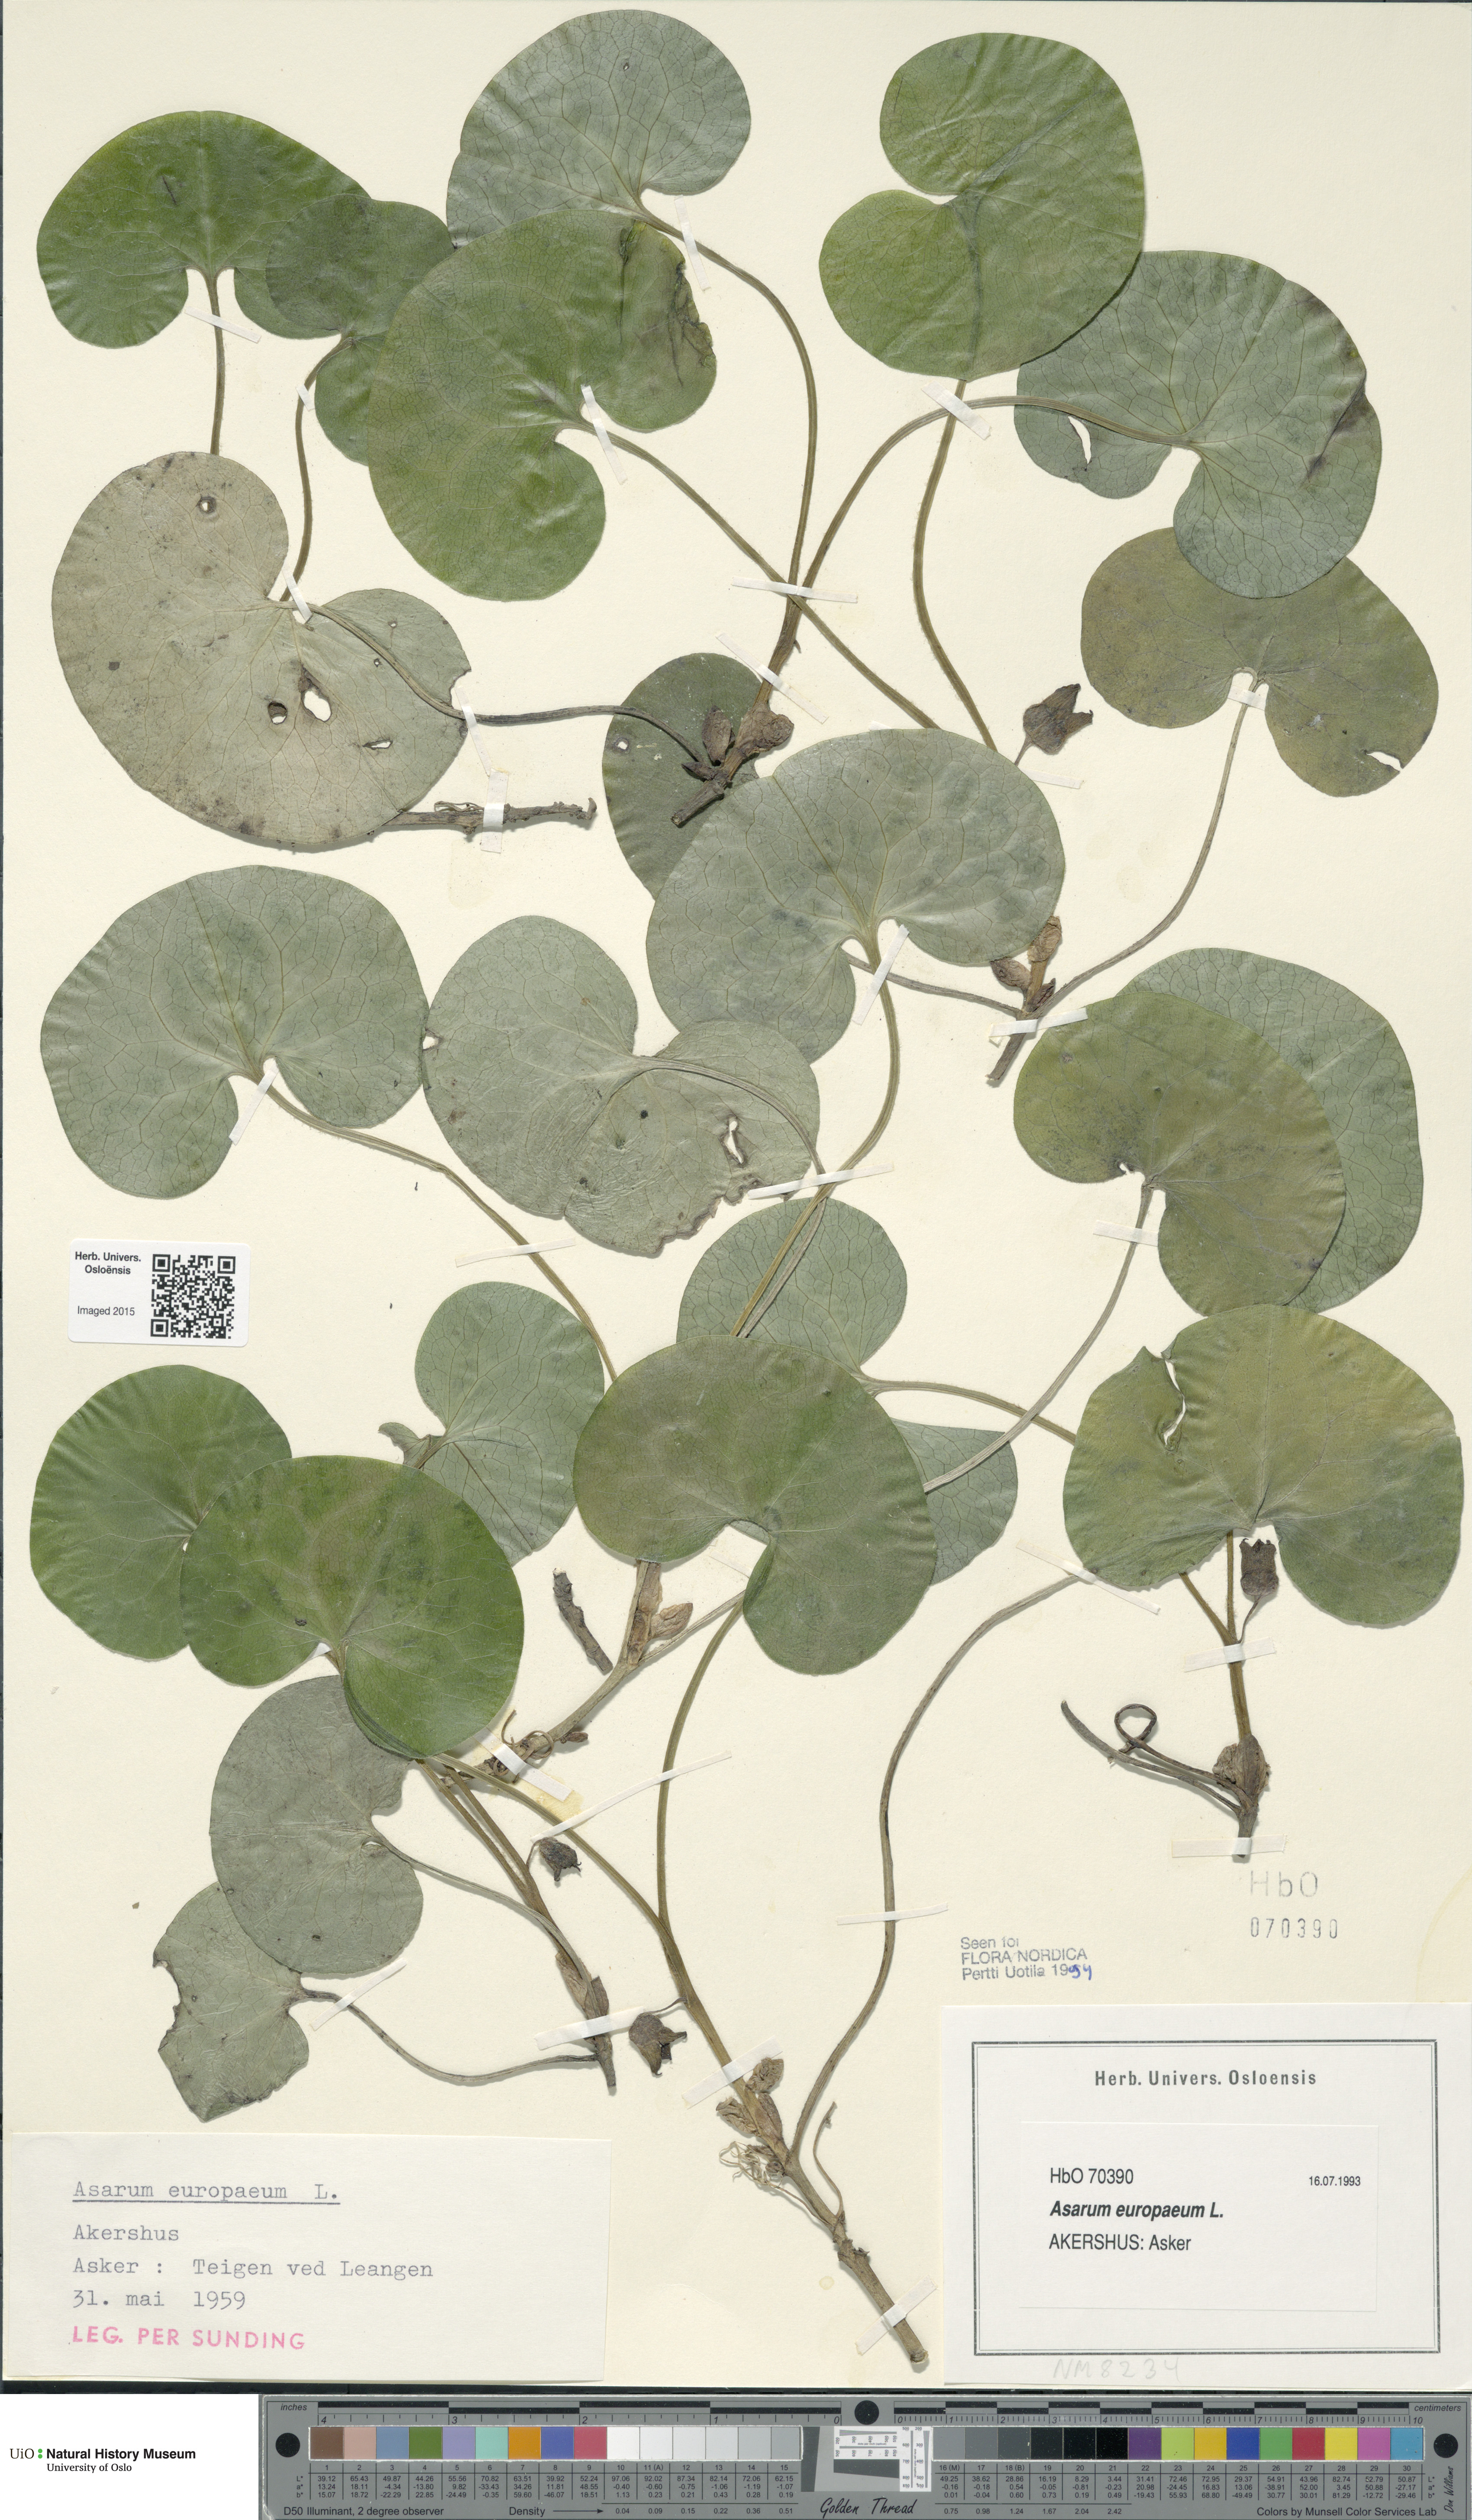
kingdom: Plantae
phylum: Tracheophyta
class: Magnoliopsida
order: Piperales
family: Aristolochiaceae
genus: Asarum
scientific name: Asarum europaeum
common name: Asarabacca
